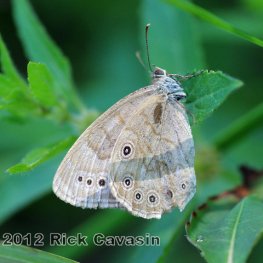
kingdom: Animalia
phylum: Arthropoda
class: Insecta
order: Lepidoptera
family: Nymphalidae
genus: Lethe
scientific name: Lethe eurydice
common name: Eyed Brown
